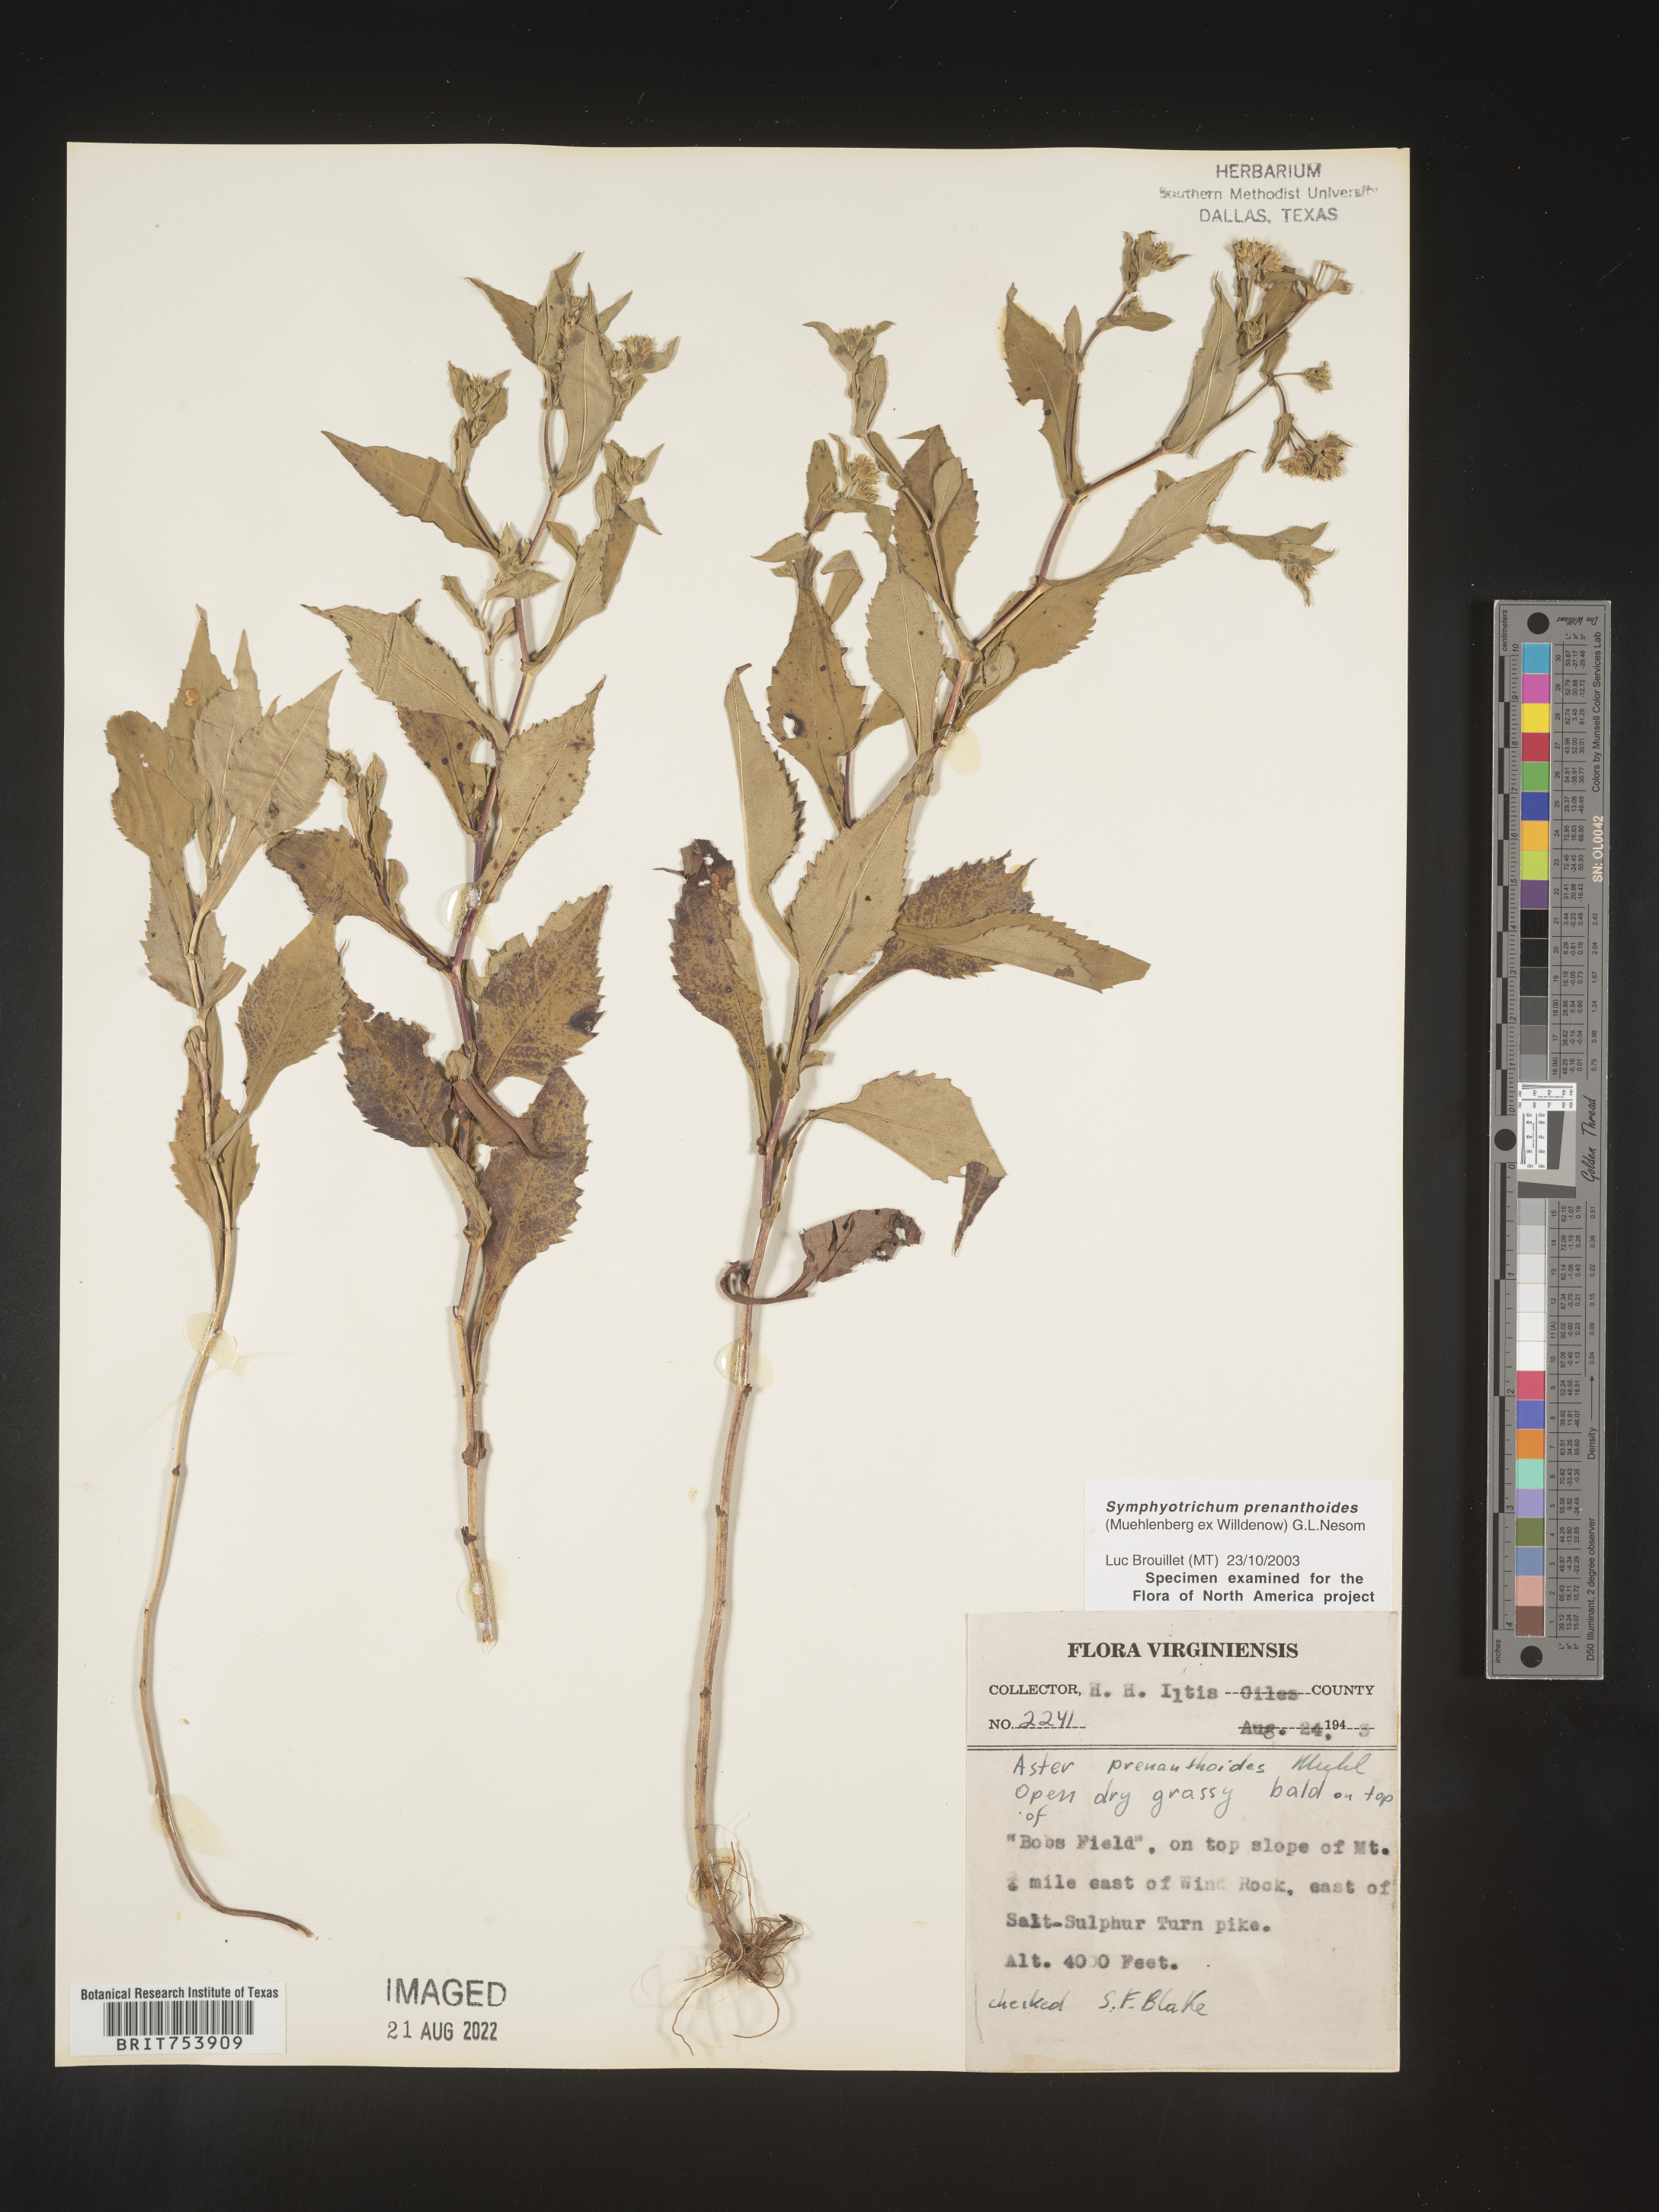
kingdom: Plantae
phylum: Tracheophyta
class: Magnoliopsida
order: Asterales
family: Asteraceae
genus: Symphyotrichum
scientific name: Symphyotrichum prenanthoides
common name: Crooked-stem aster
